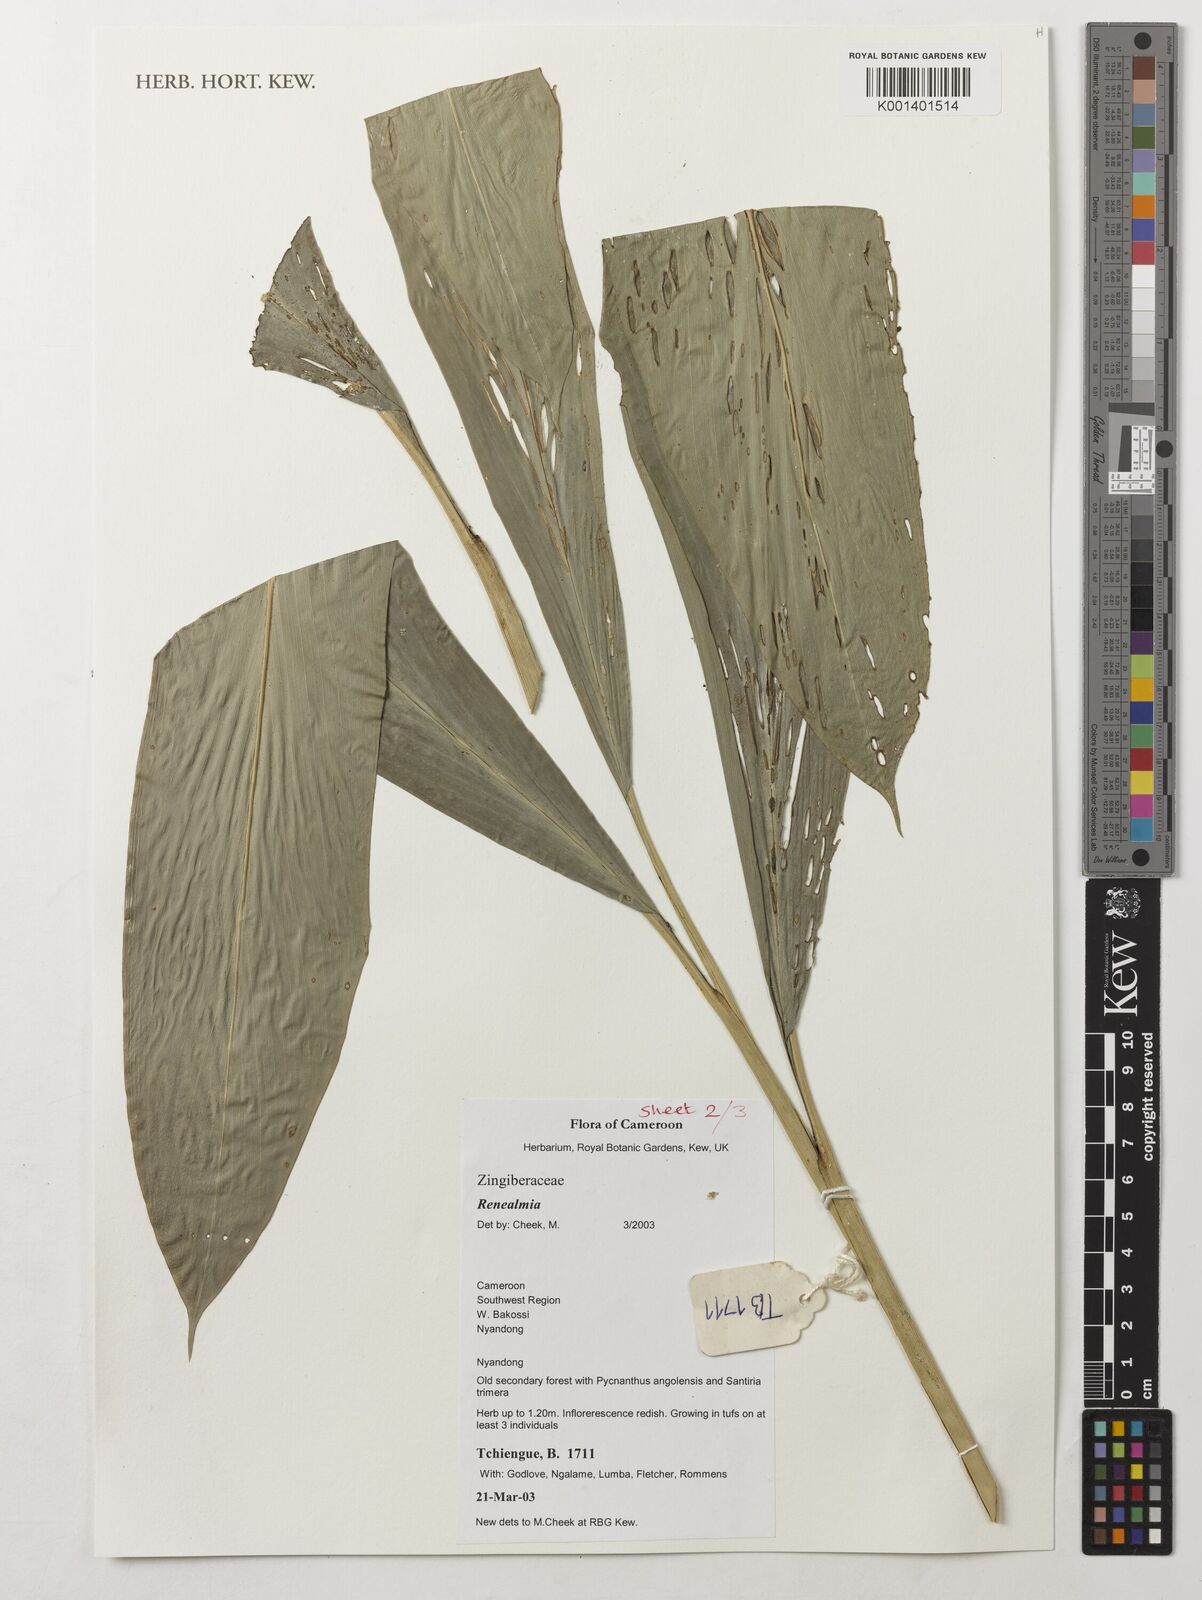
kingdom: Plantae
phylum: Tracheophyta
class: Liliopsida
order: Zingiberales
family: Zingiberaceae
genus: Renealmia
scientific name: Renealmia
